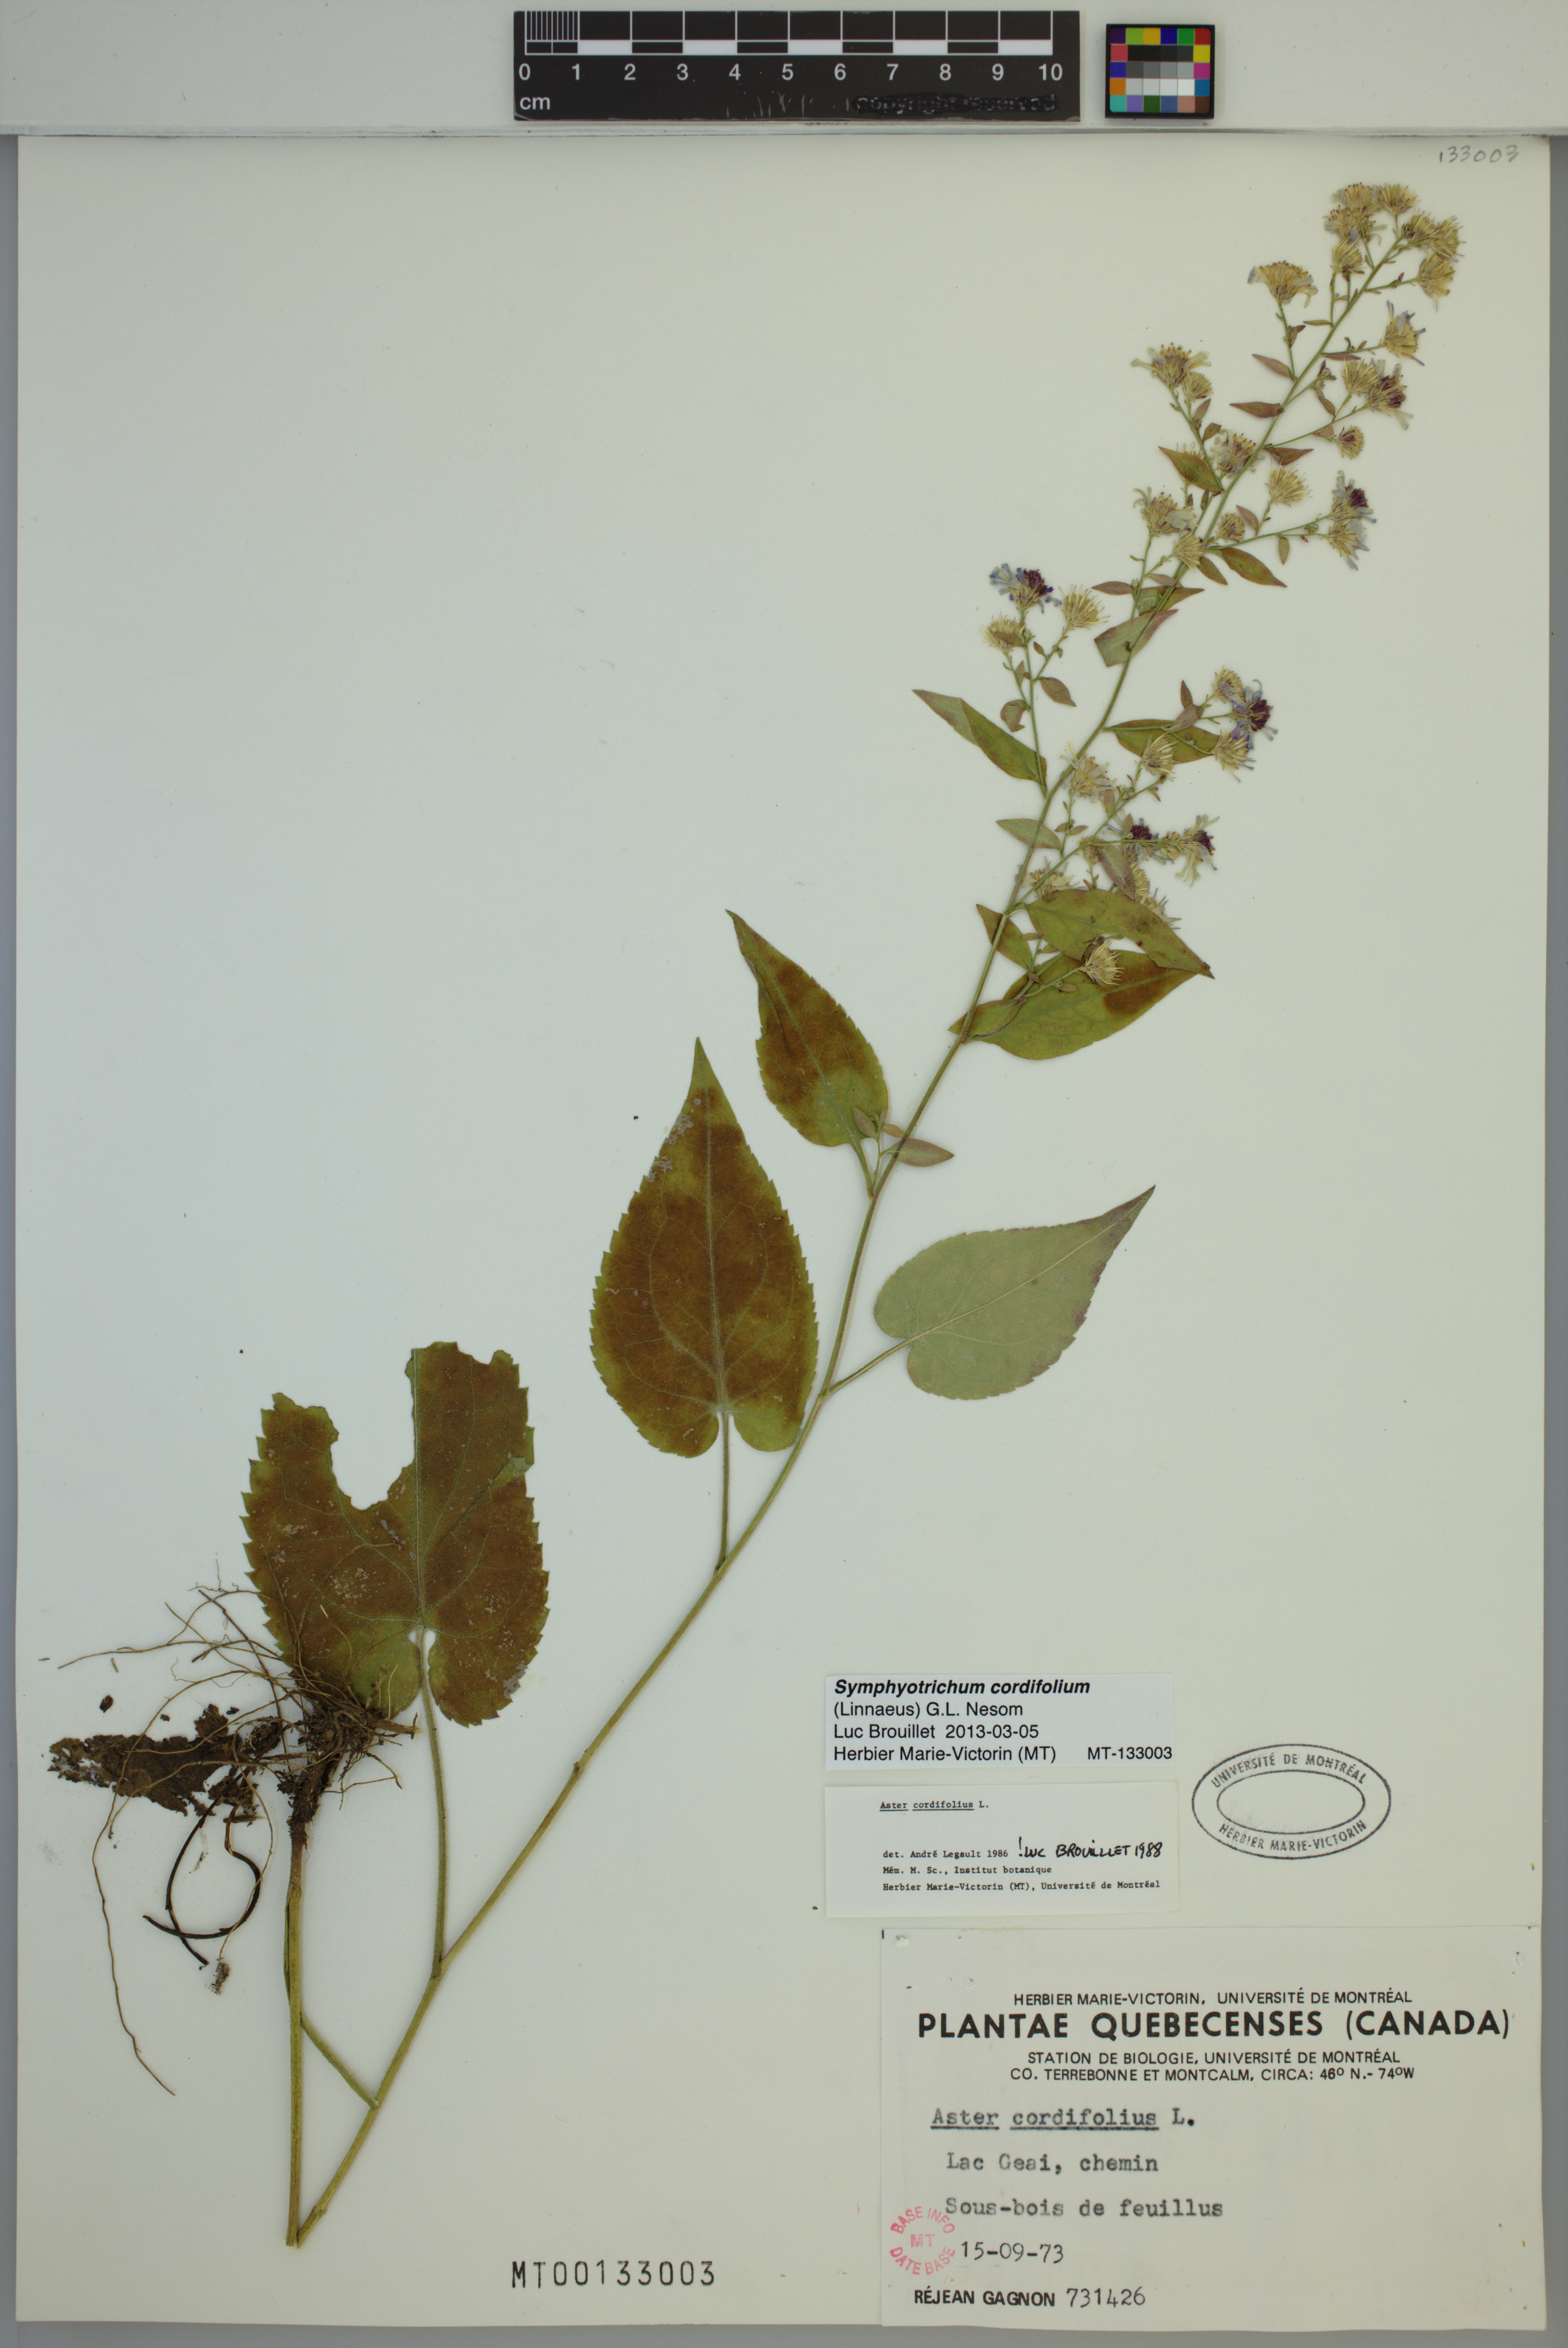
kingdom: Plantae
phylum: Tracheophyta
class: Magnoliopsida
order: Asterales
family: Asteraceae
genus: Symphyotrichum
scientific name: Symphyotrichum cordifolium
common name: Beeweed
